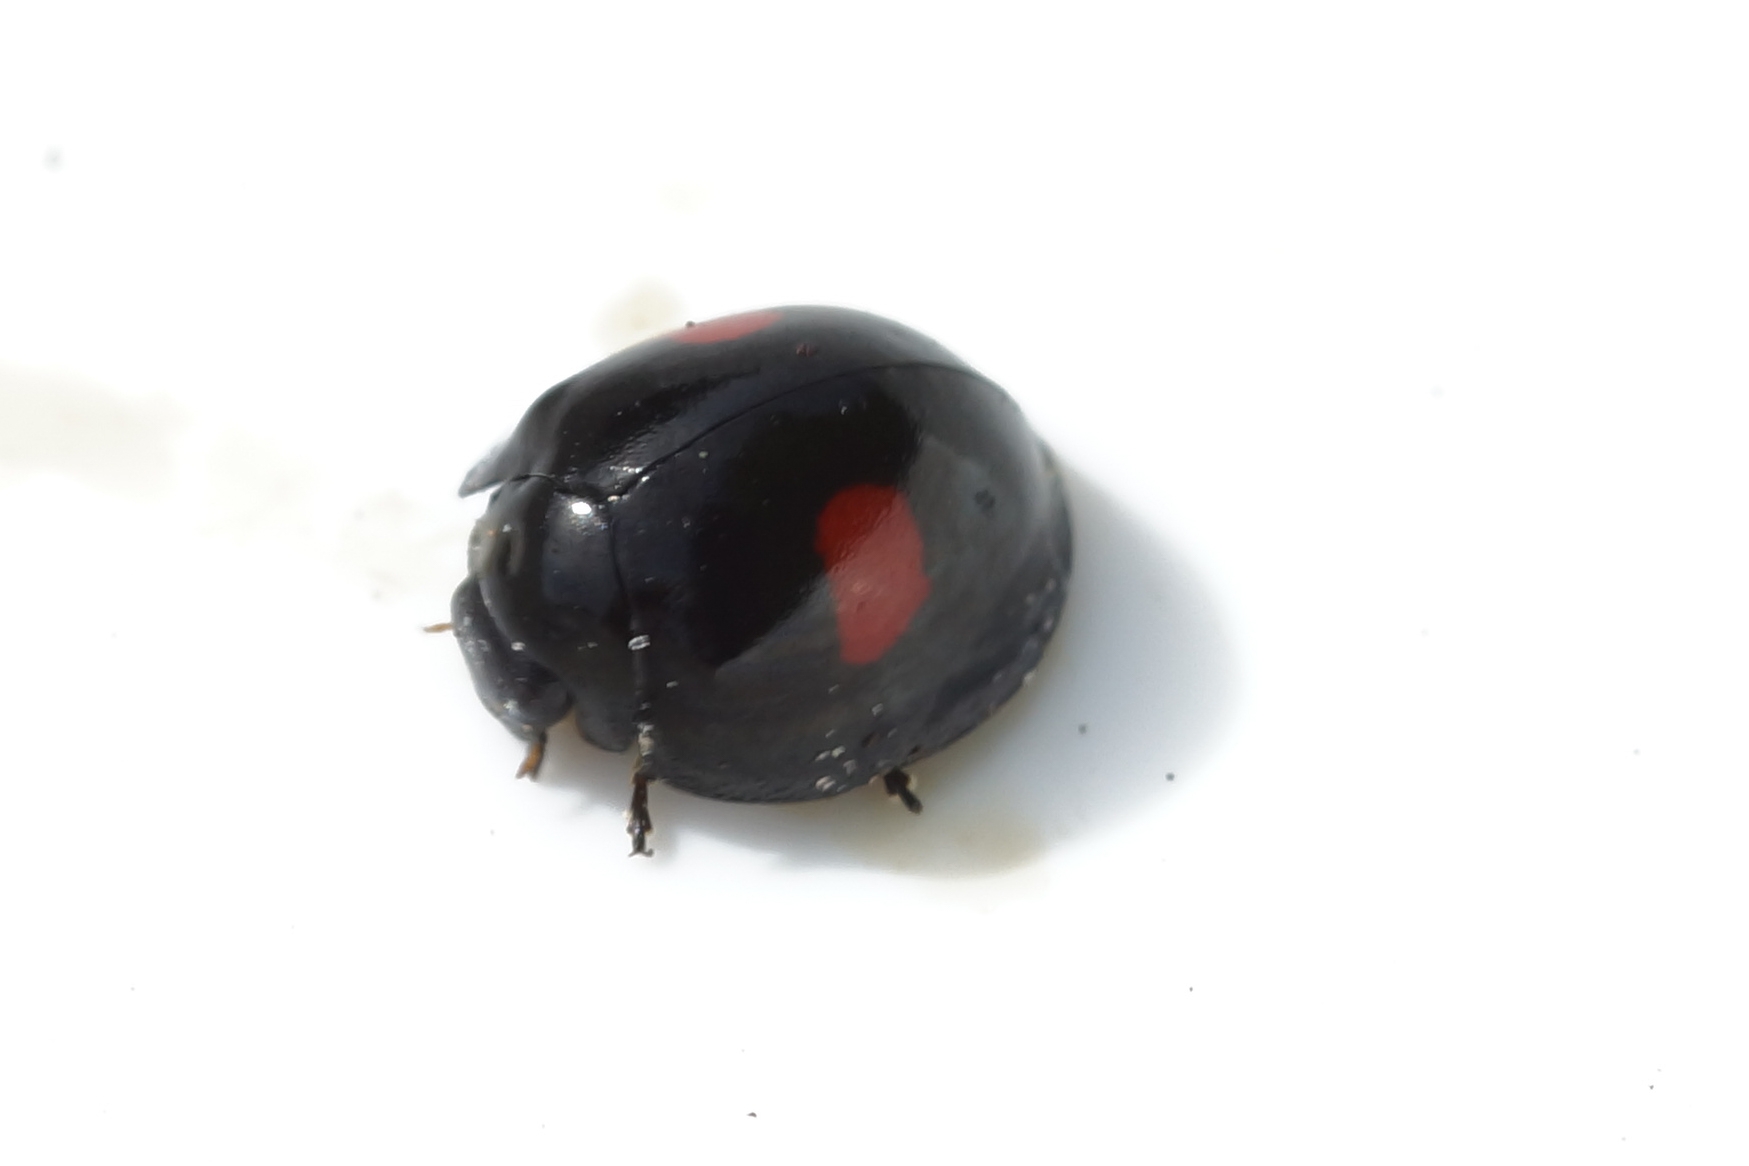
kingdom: Animalia
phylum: Arthropoda
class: Insecta
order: Coleoptera
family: Coccinellidae
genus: Chilocorus
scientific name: Chilocorus renipustulatus
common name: Askemariehøne
